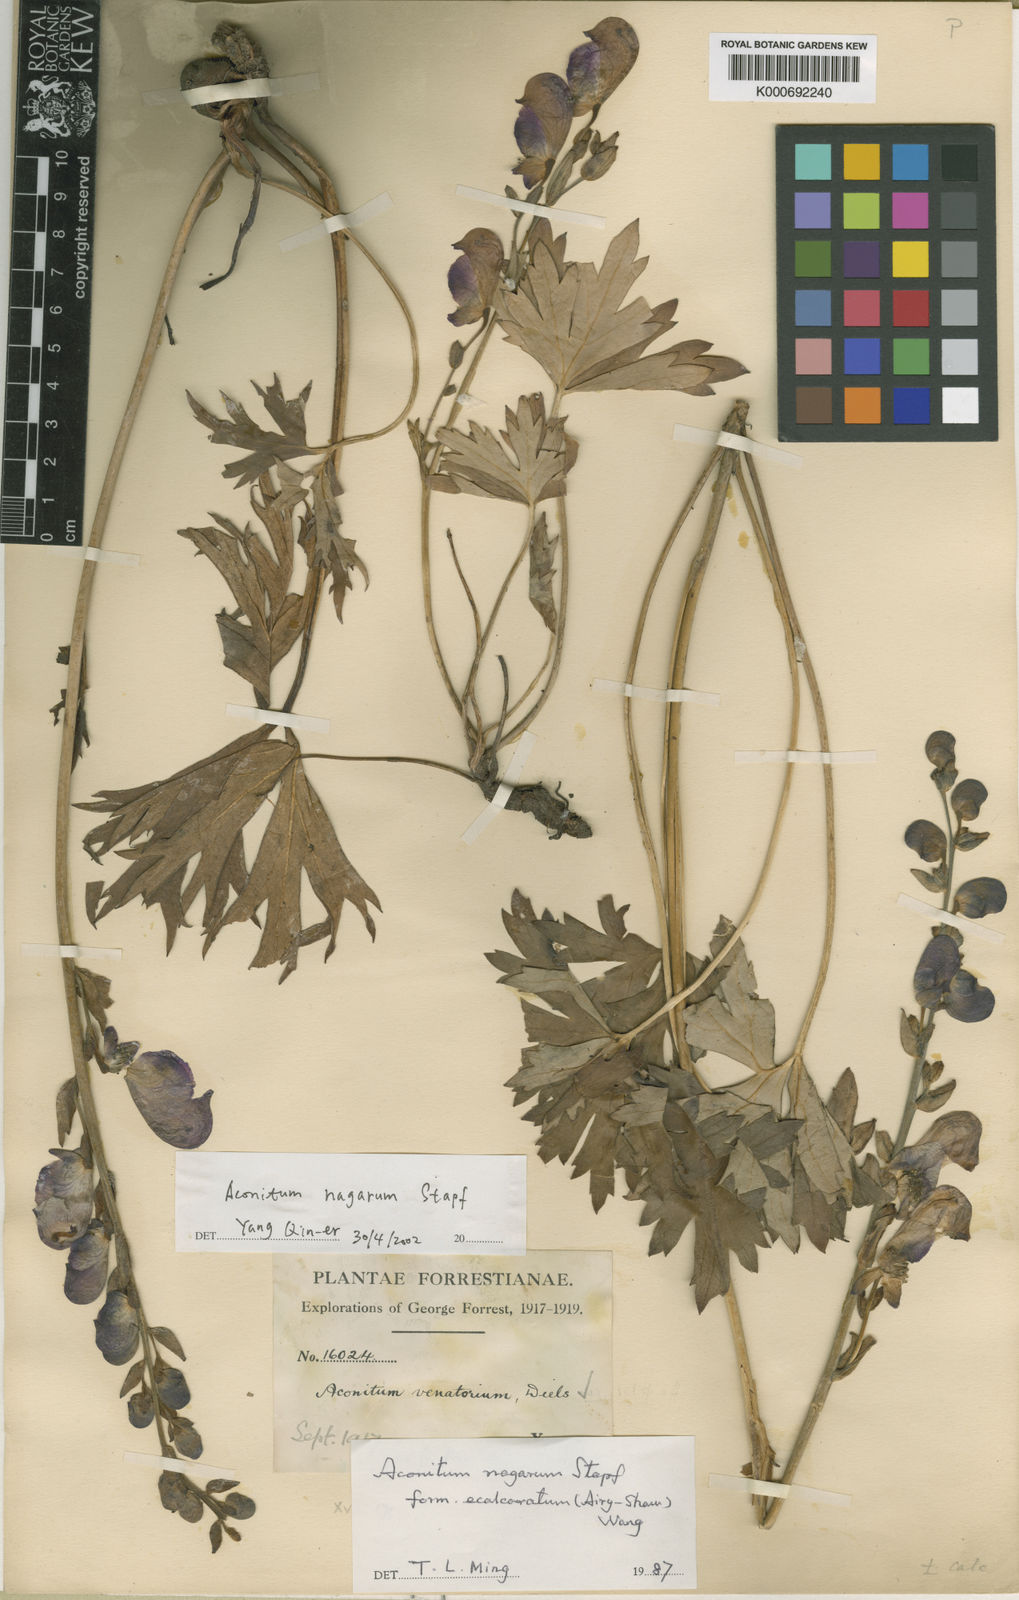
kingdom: Plantae
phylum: Tracheophyta
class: Magnoliopsida
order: Ranunculales
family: Ranunculaceae
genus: Aconitum
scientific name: Aconitum nagarum
